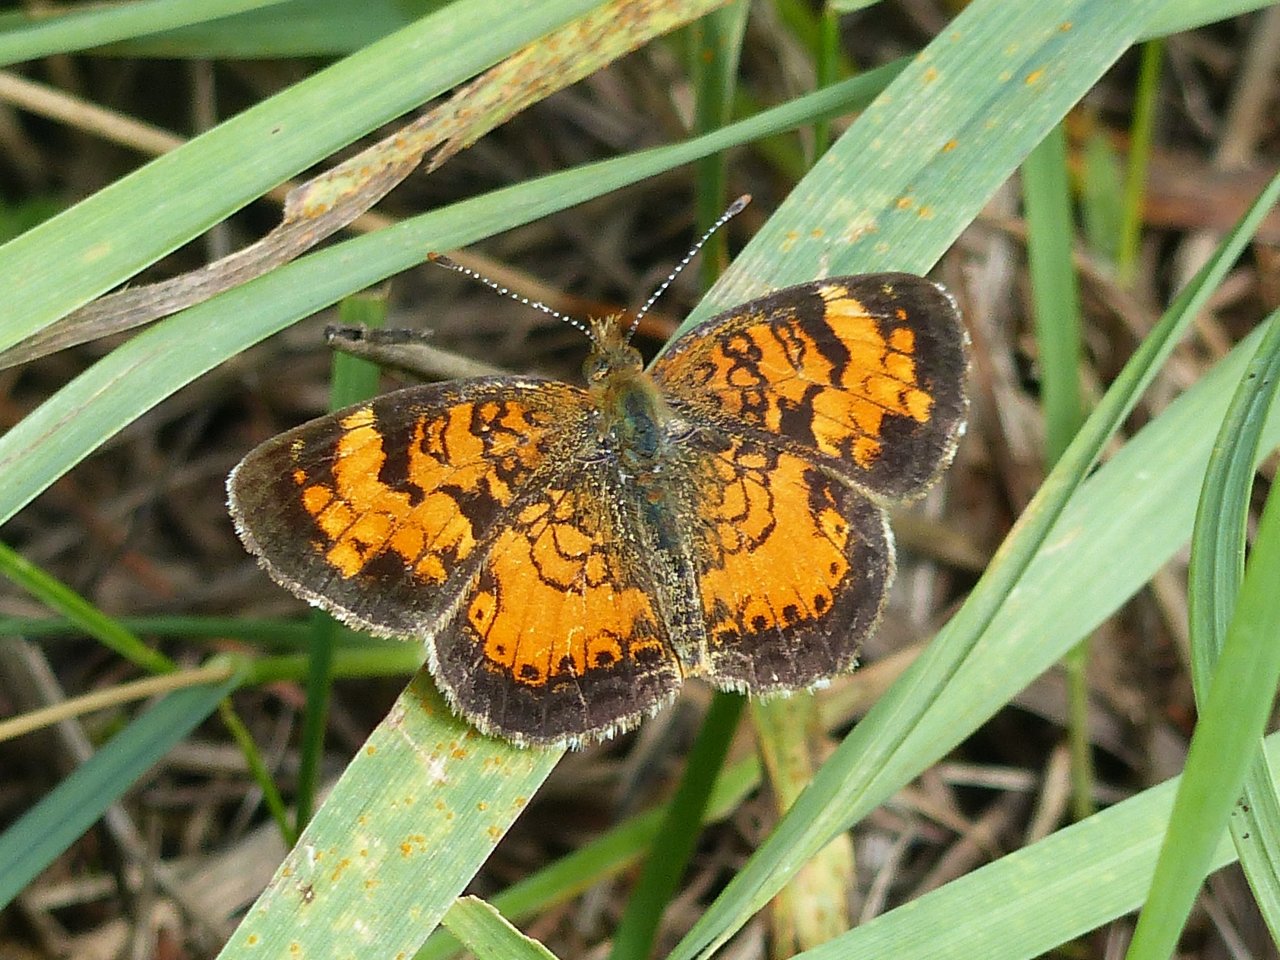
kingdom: Animalia
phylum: Arthropoda
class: Insecta
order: Lepidoptera
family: Nymphalidae
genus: Phyciodes
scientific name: Phyciodes tharos
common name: Northern Crescent
